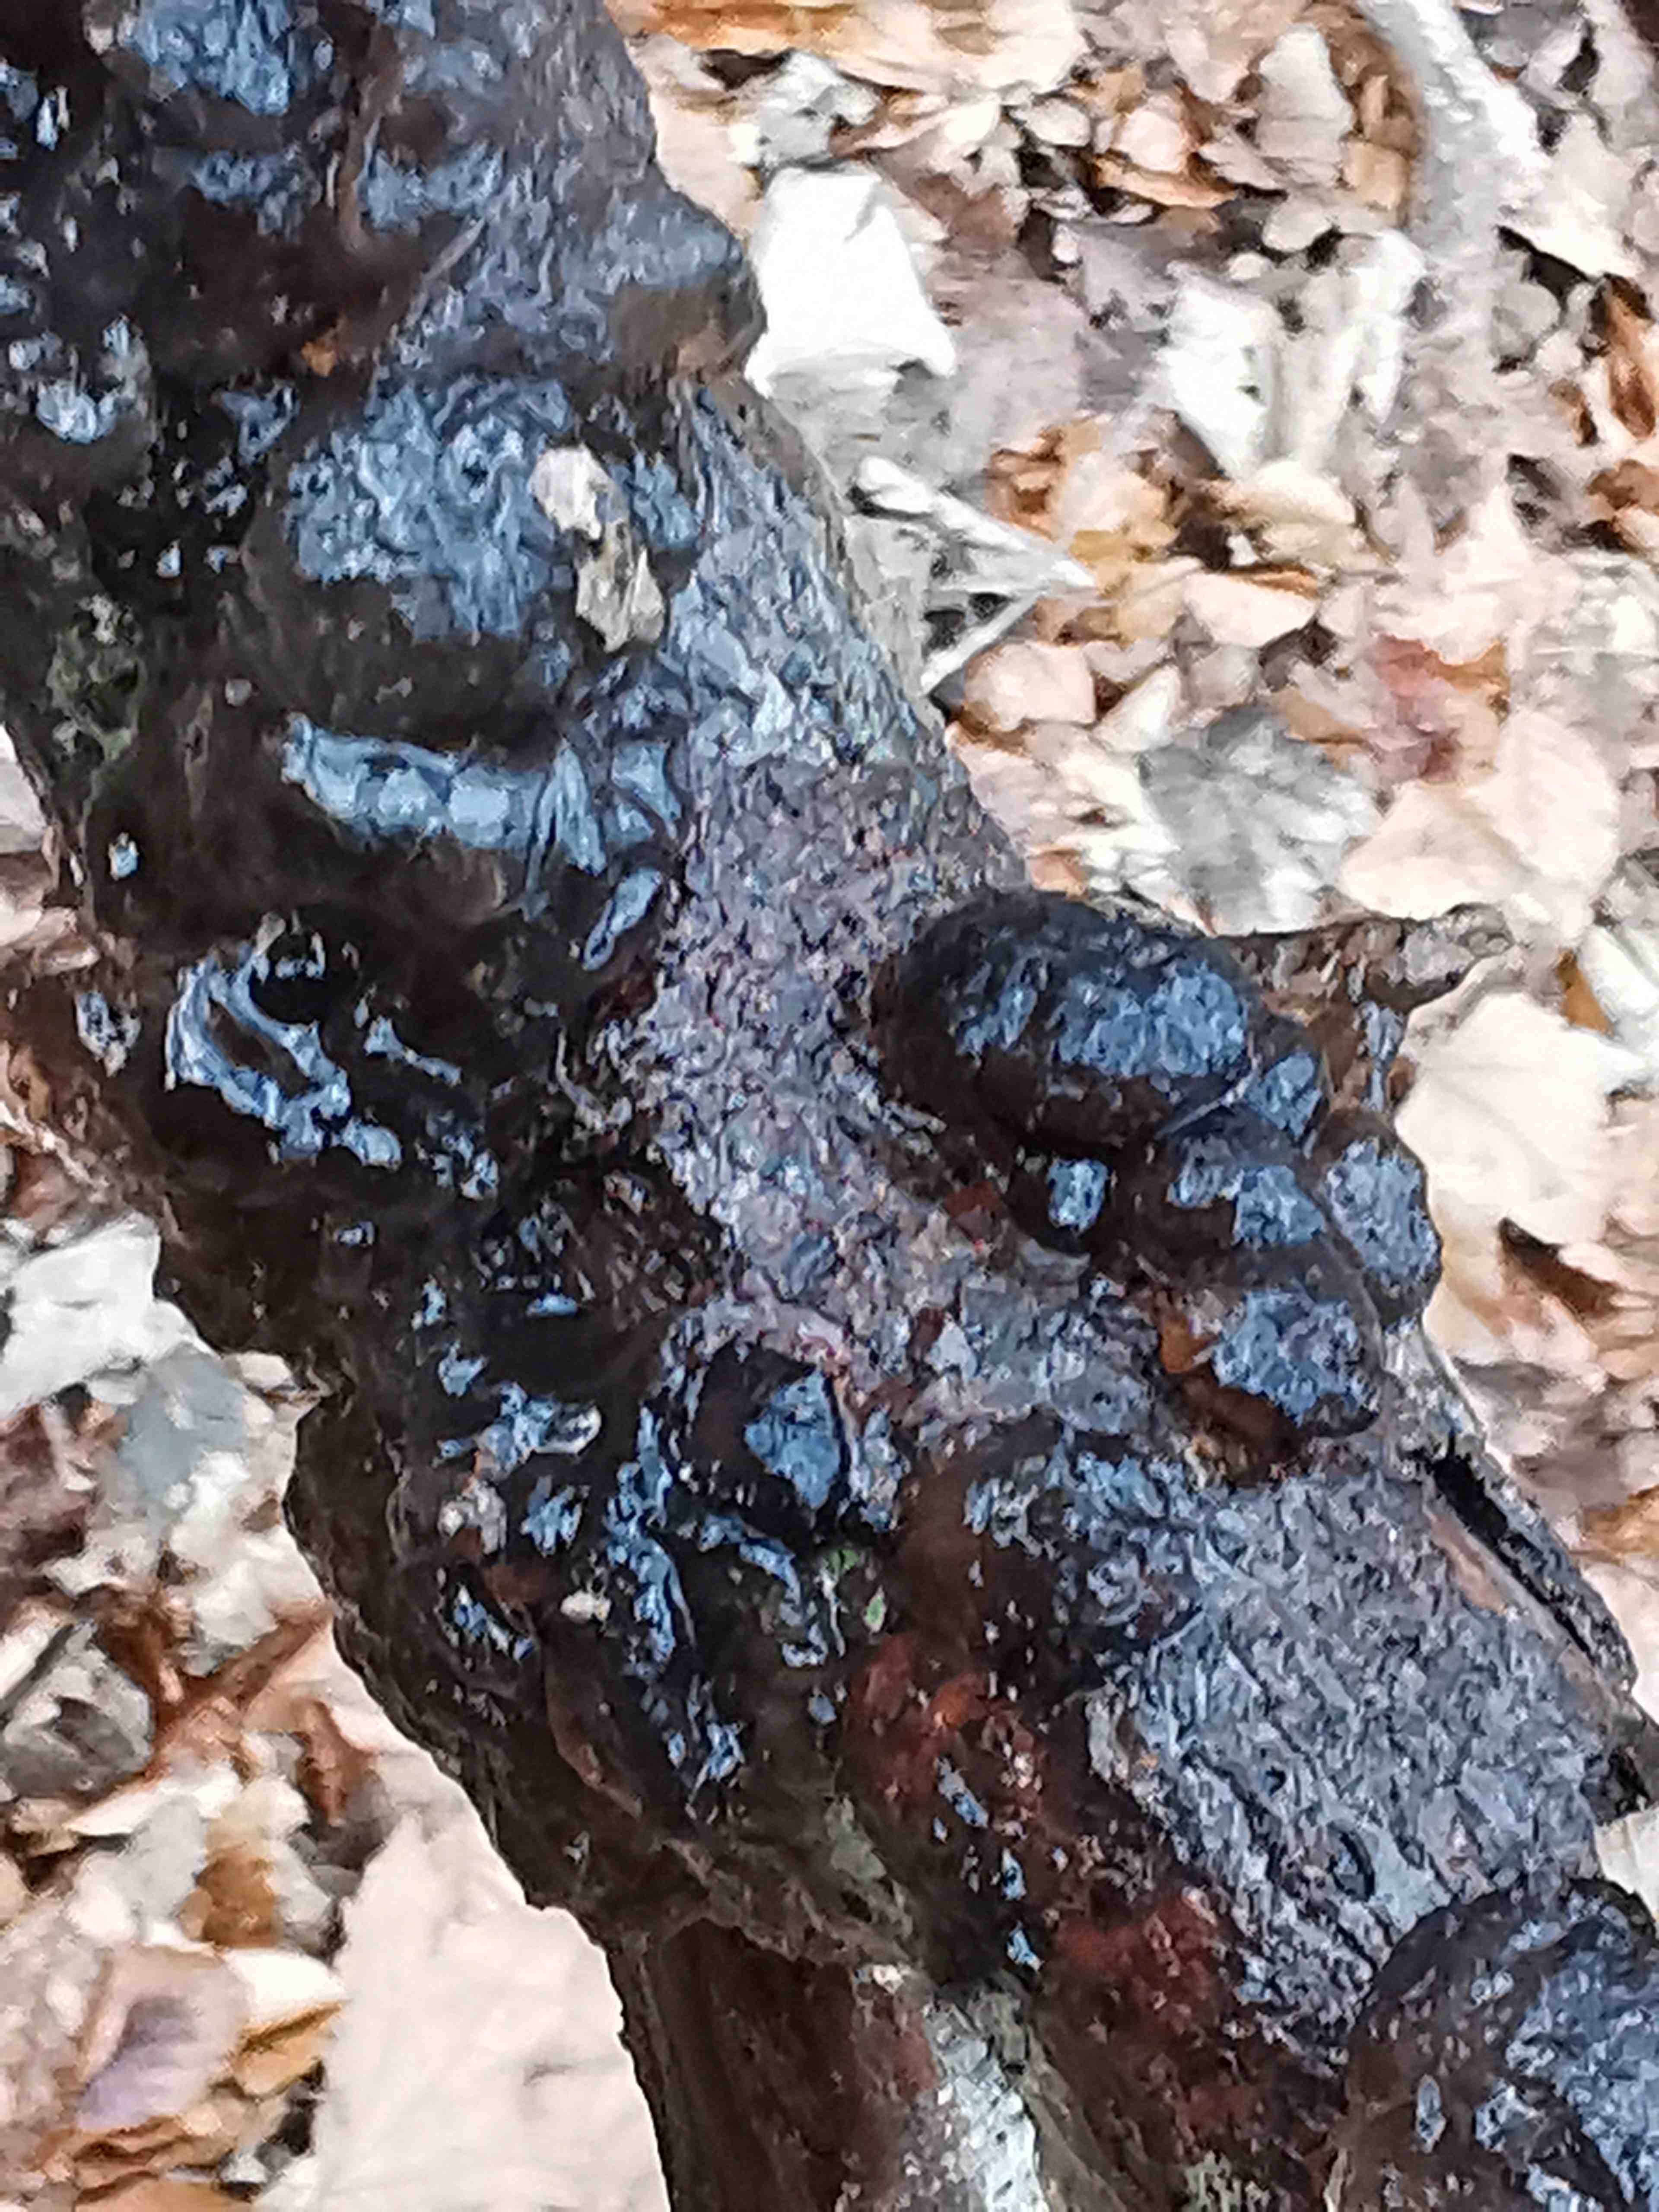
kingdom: Fungi
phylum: Basidiomycota
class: Agaricomycetes
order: Auriculariales
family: Auriculariaceae
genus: Exidia
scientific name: Exidia nigricans
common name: almindelig bævretop
